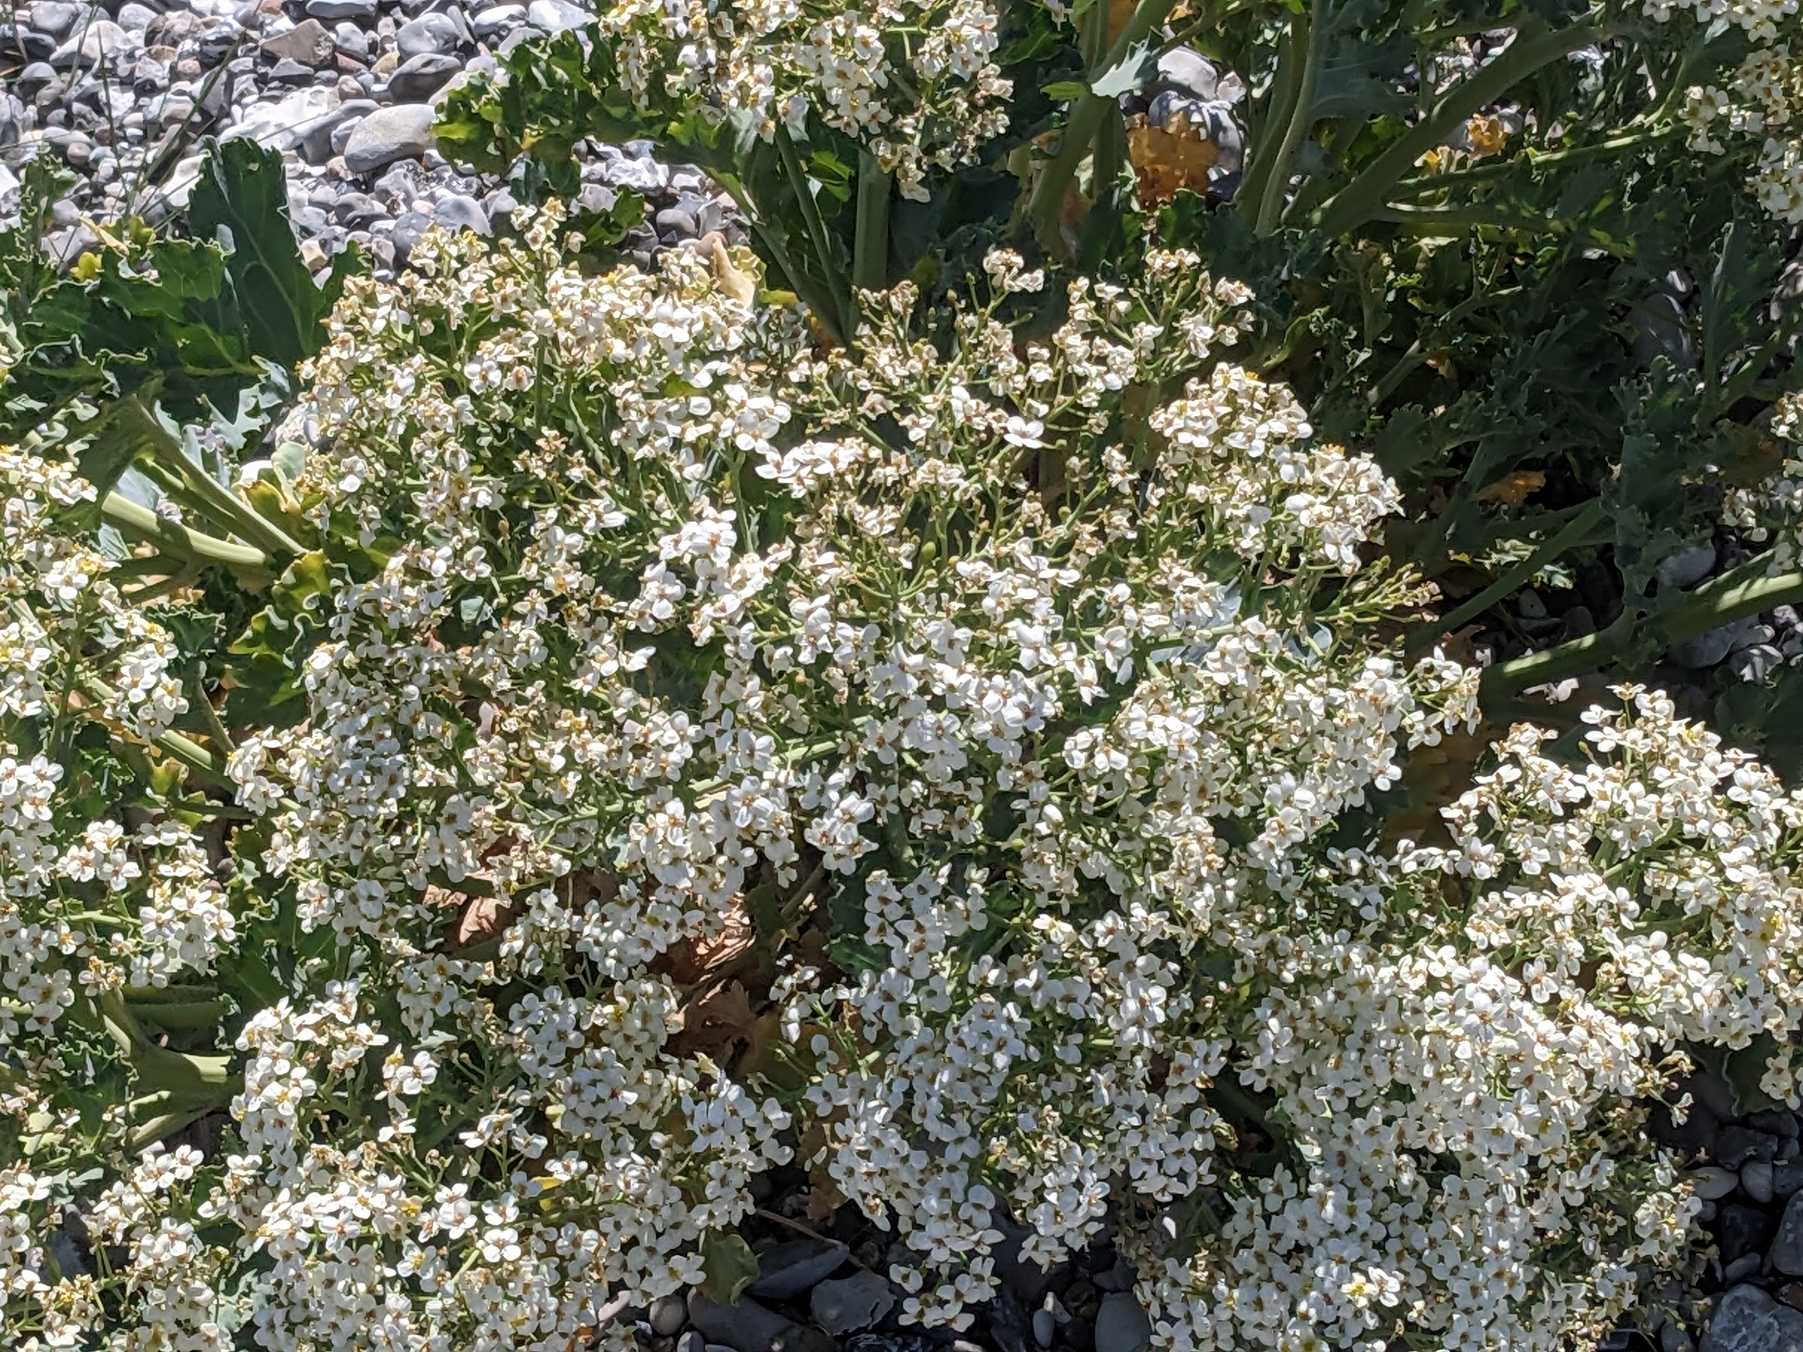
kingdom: Plantae
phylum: Tracheophyta
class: Magnoliopsida
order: Brassicales
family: Brassicaceae
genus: Crambe
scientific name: Crambe maritima
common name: Strandkål
